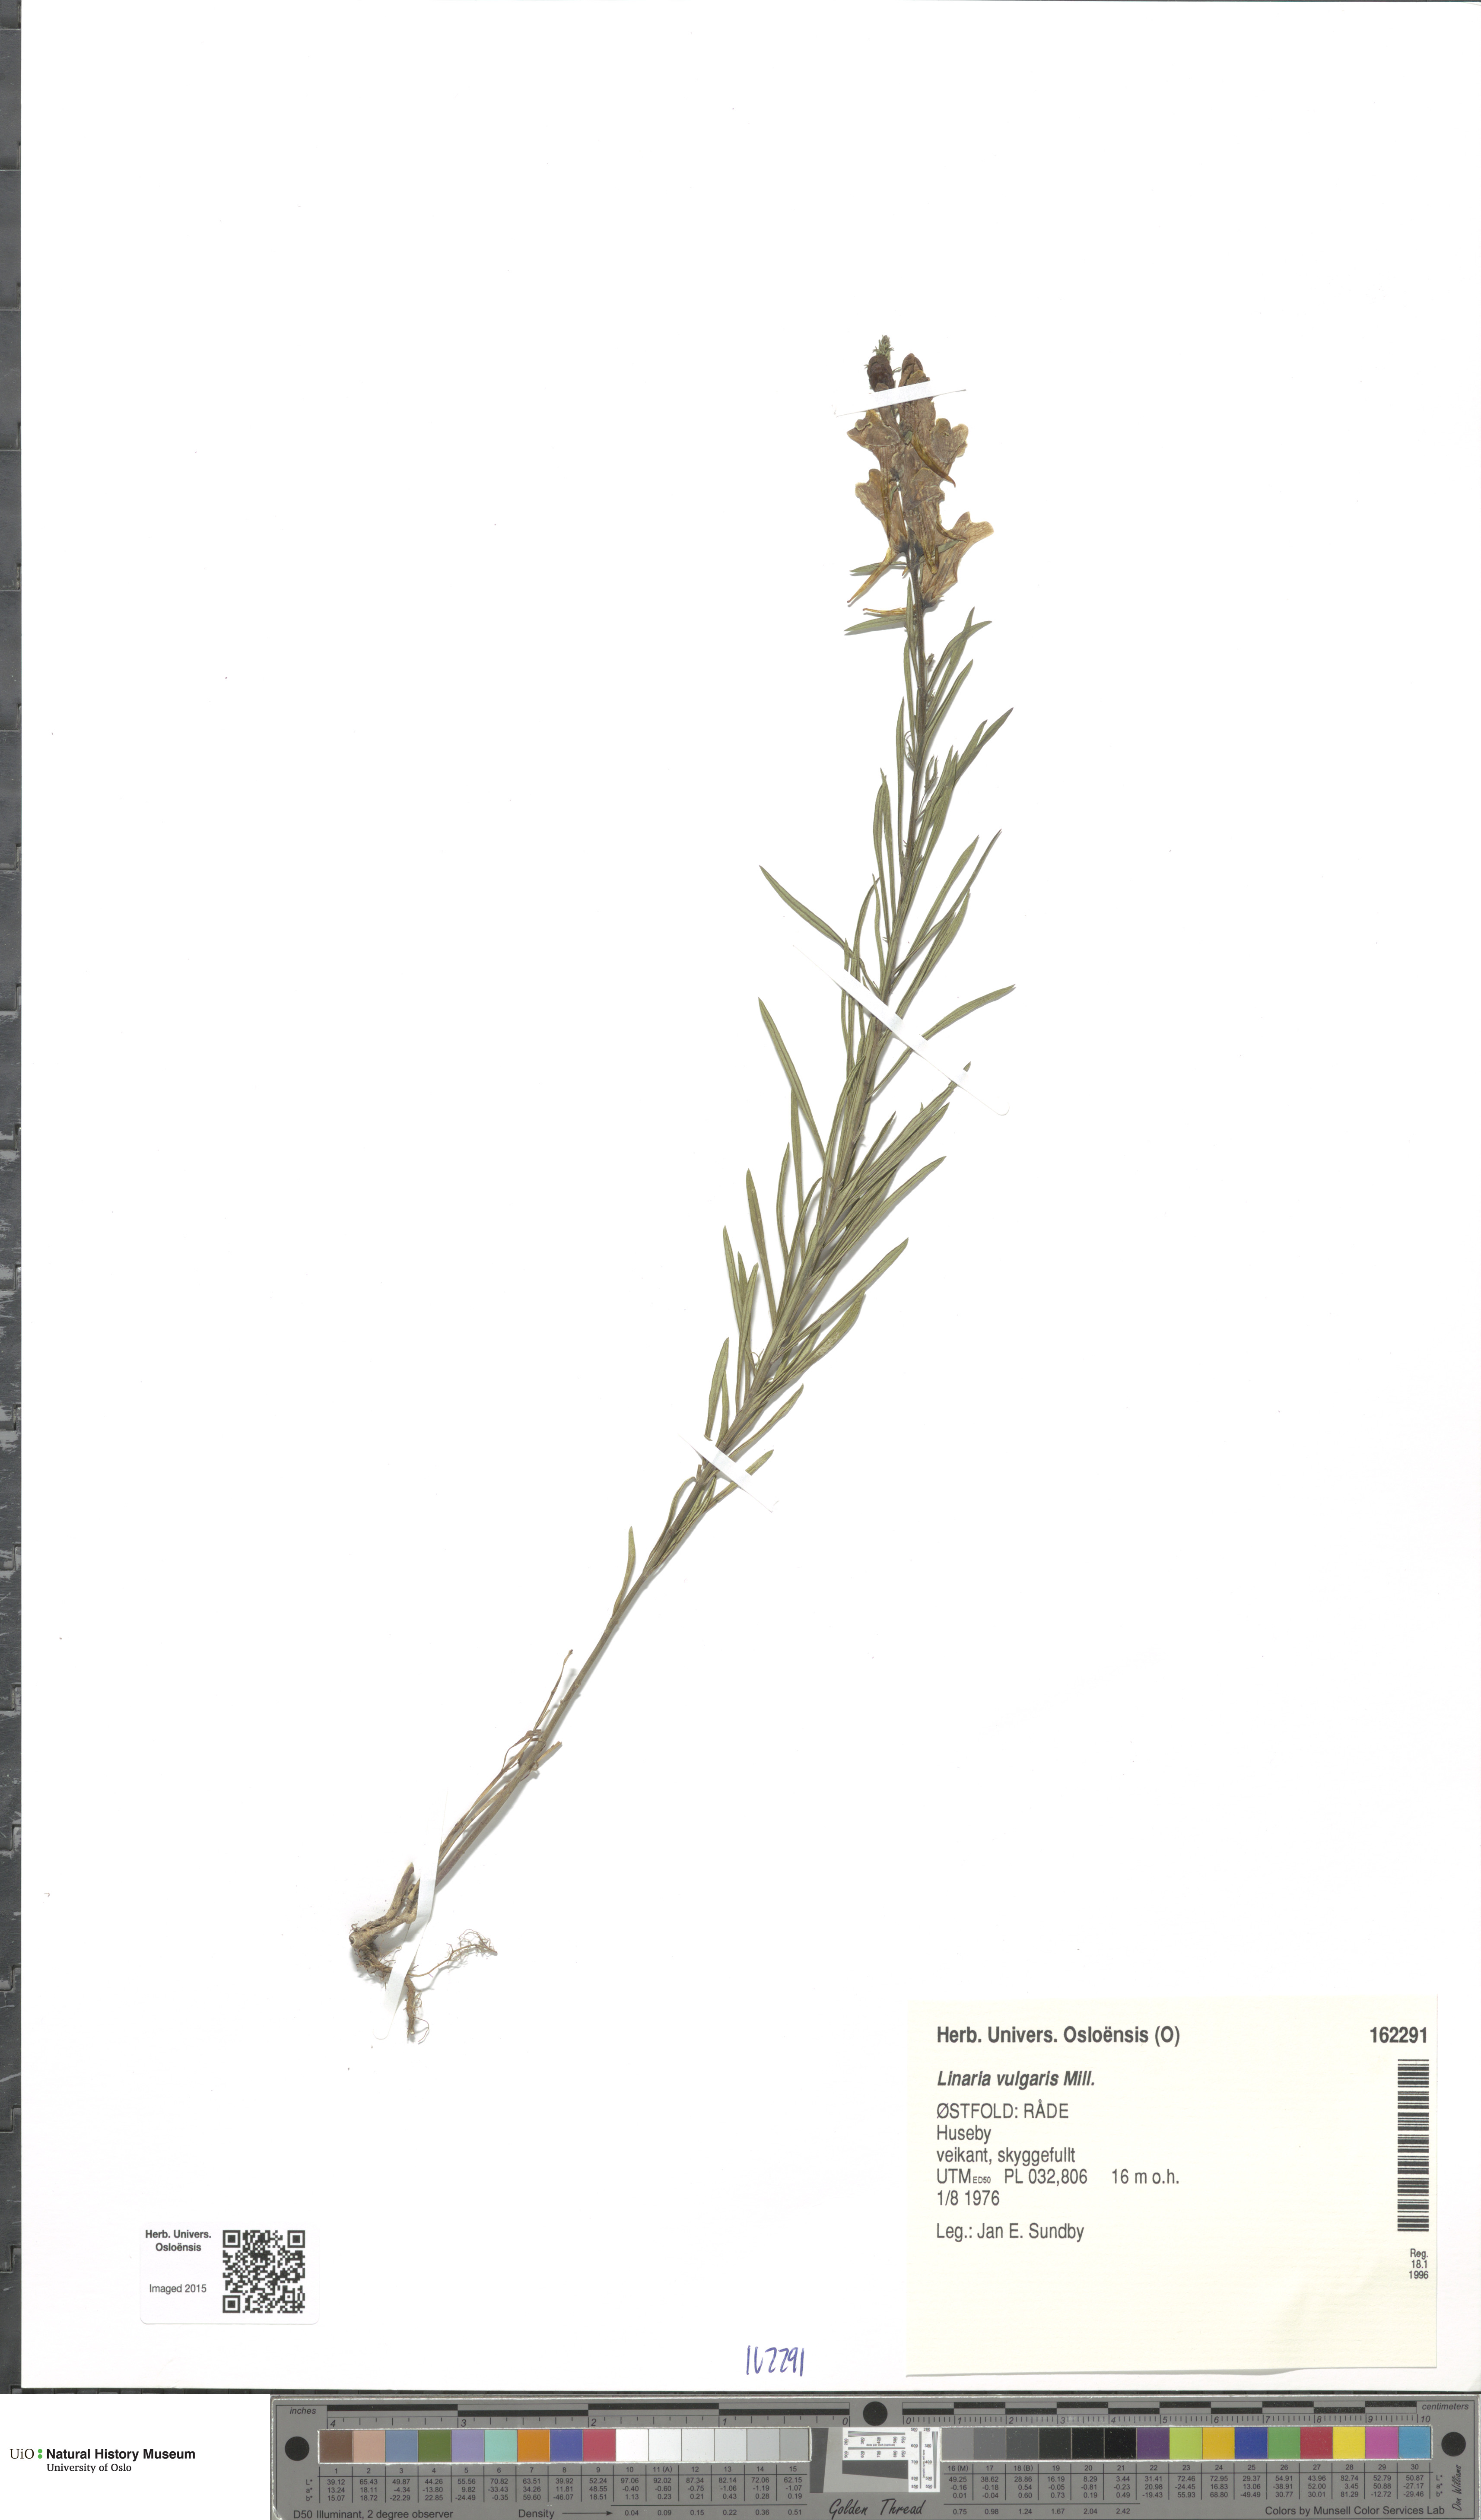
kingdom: Plantae
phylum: Tracheophyta
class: Magnoliopsida
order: Lamiales
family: Plantaginaceae
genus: Linaria
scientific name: Linaria vulgaris
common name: Butter and eggs
